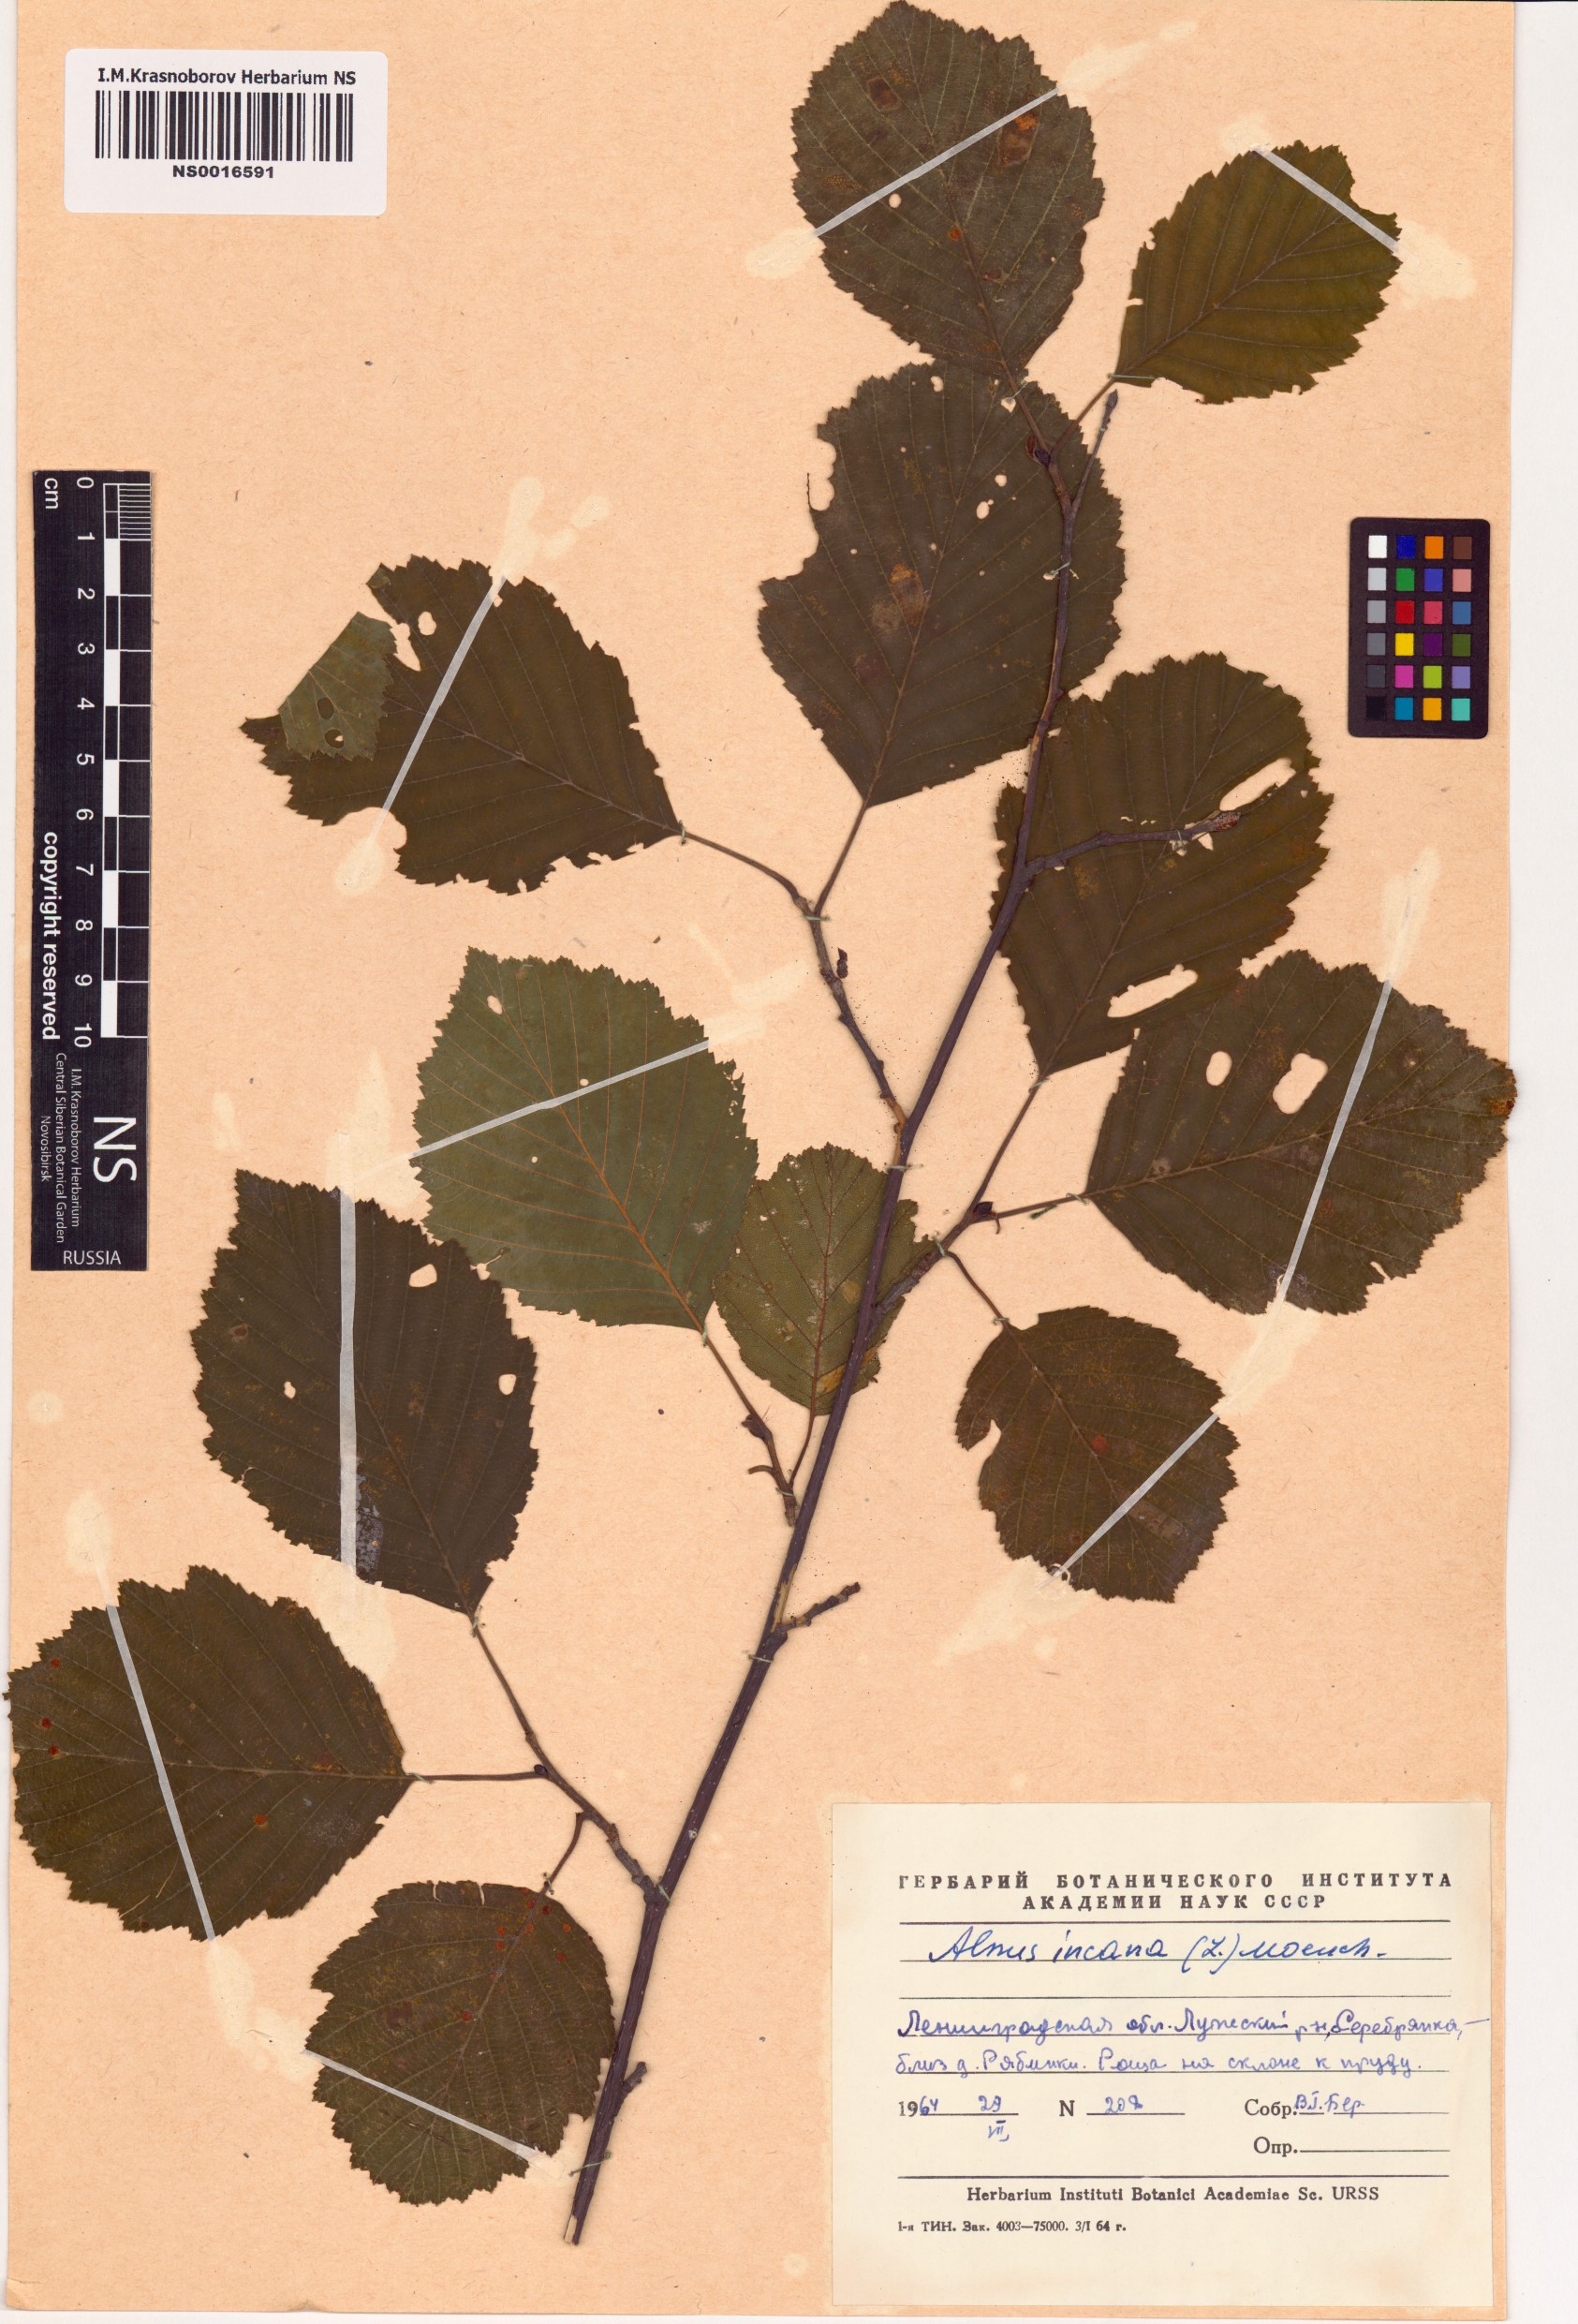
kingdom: Plantae
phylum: Tracheophyta
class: Magnoliopsida
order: Fagales
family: Betulaceae
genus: Alnus
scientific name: Alnus incana
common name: Grey alder
